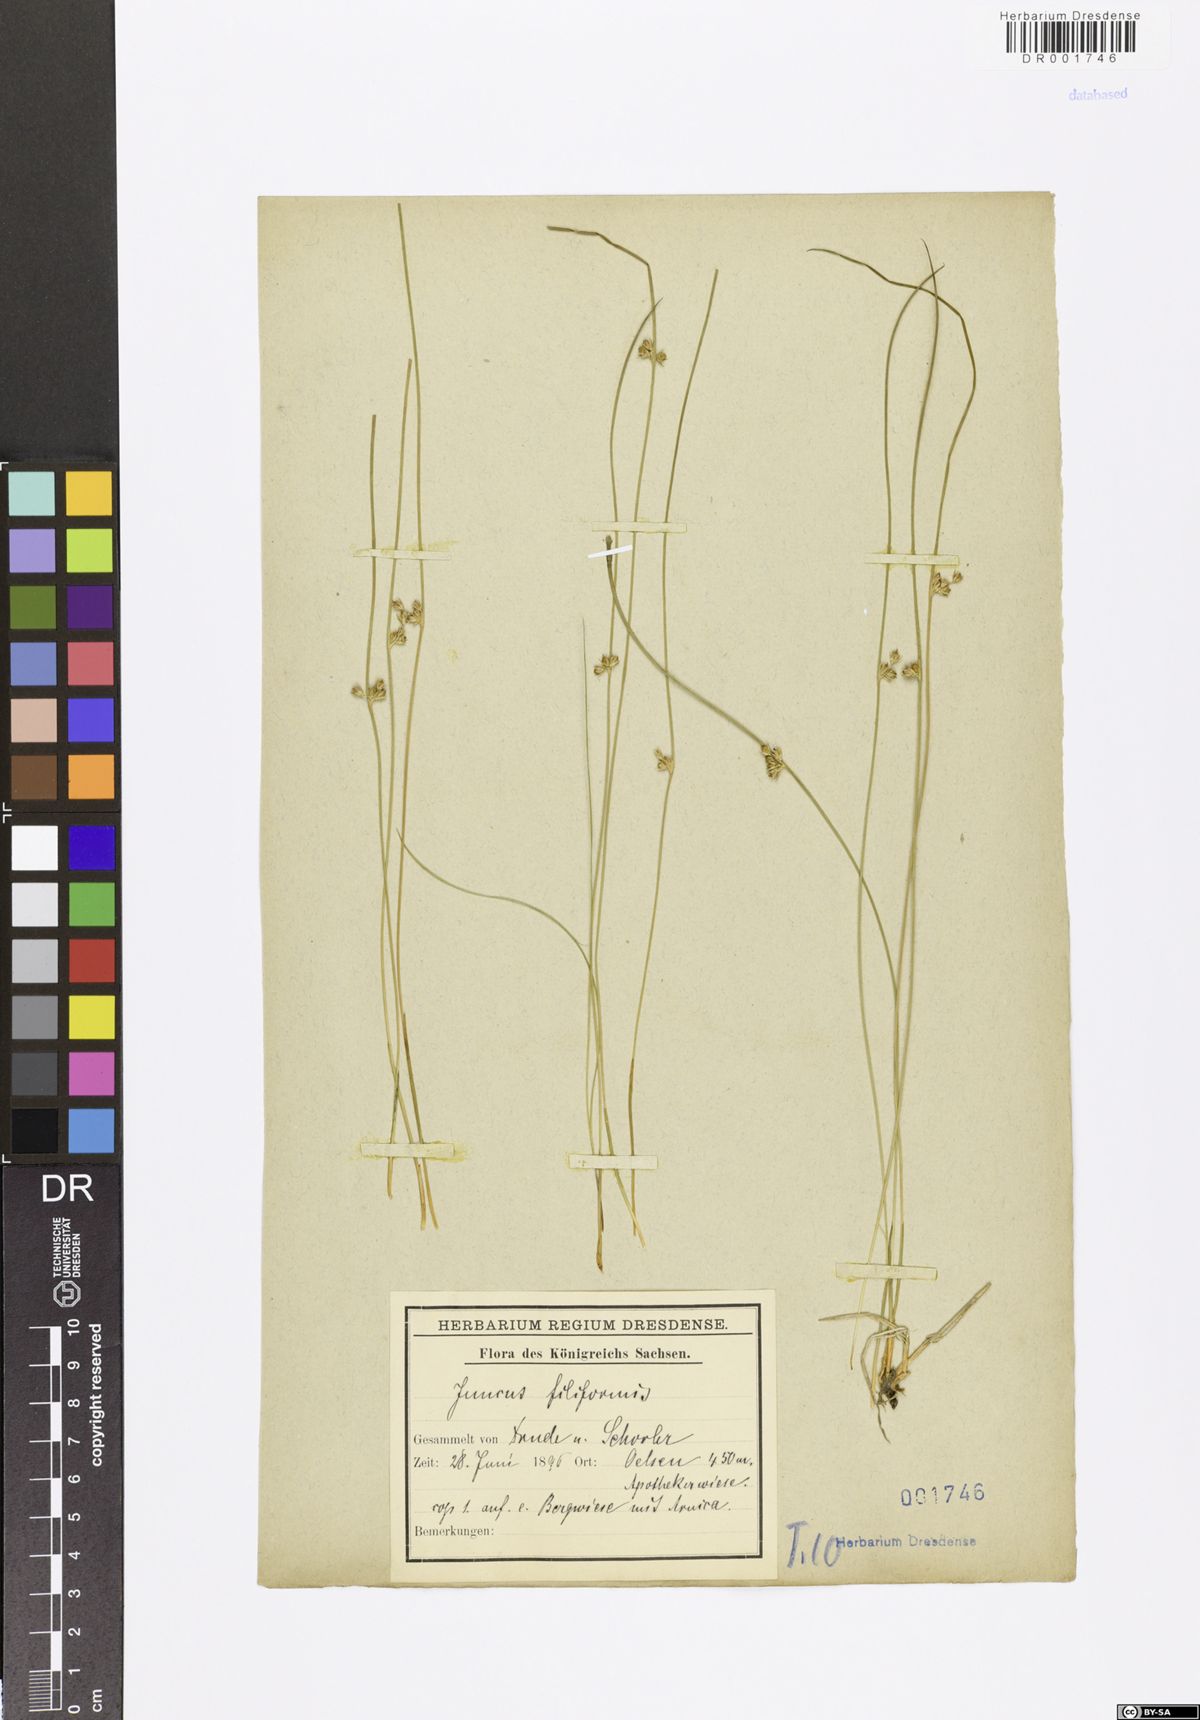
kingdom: Plantae
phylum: Tracheophyta
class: Liliopsida
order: Poales
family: Juncaceae
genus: Juncus
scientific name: Juncus inflexus
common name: Hard rush
